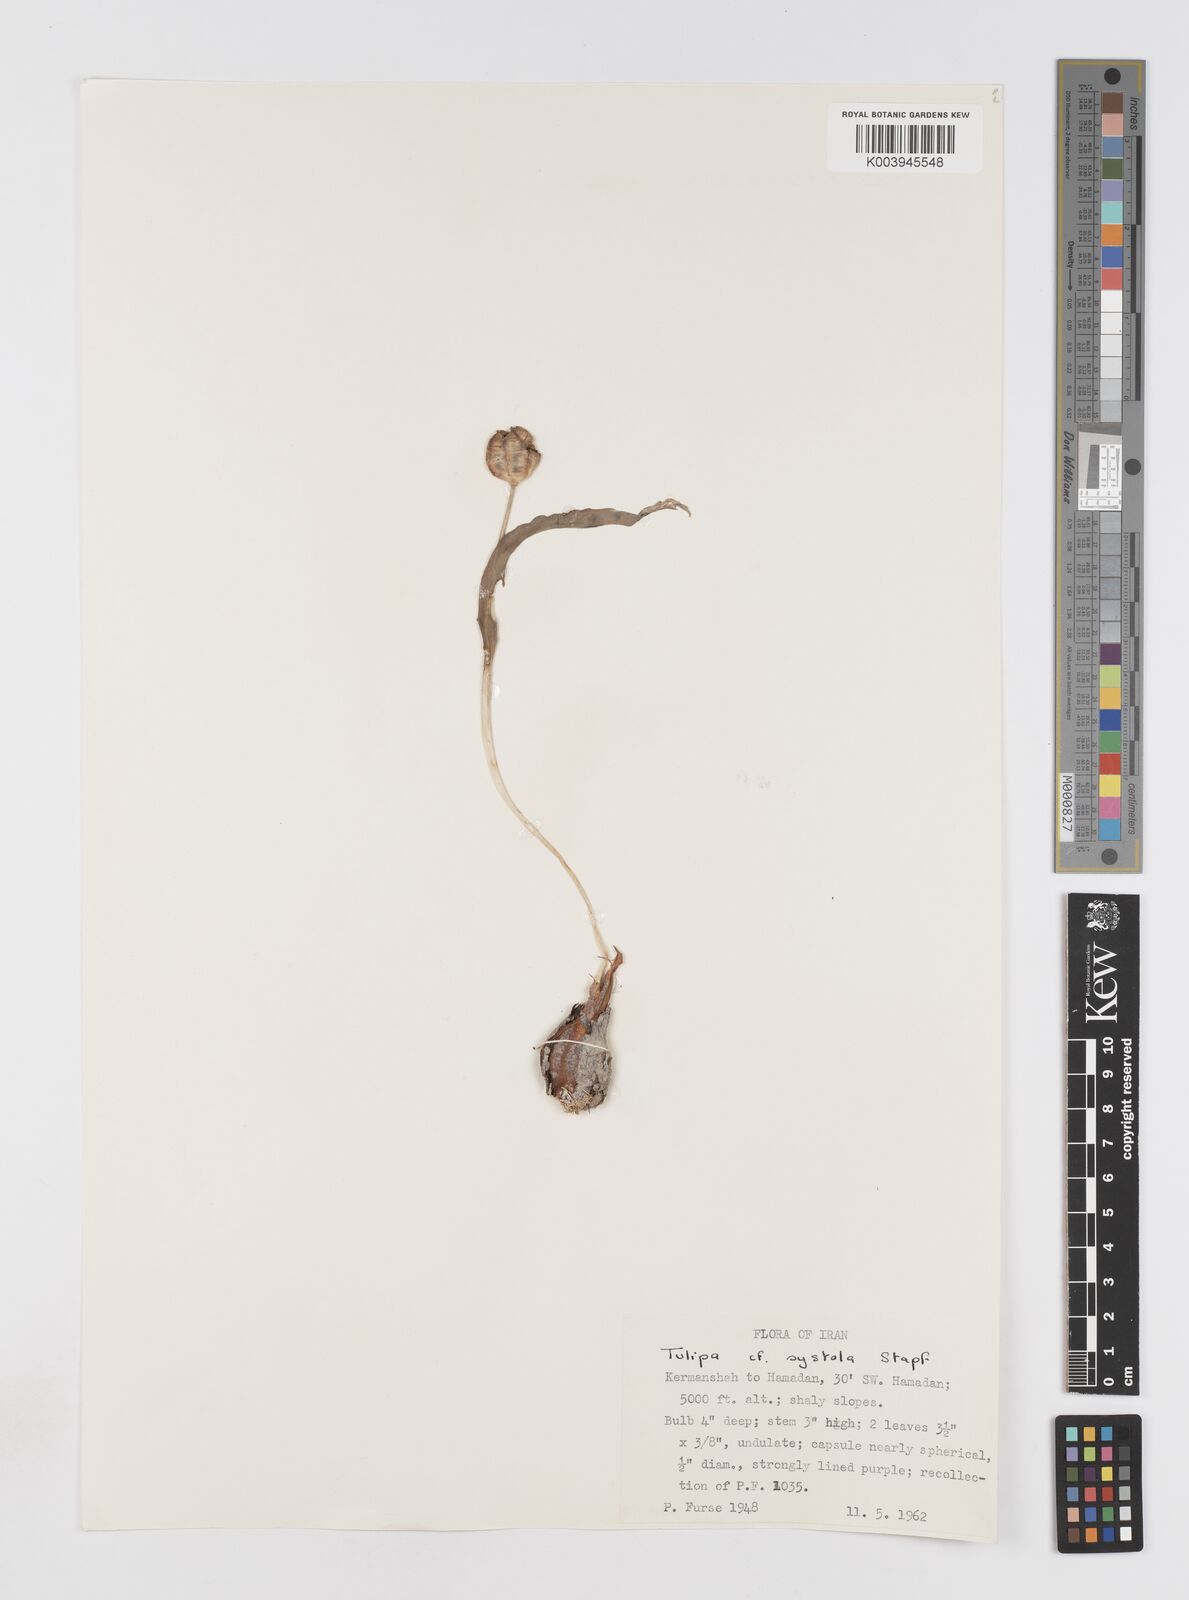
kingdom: Plantae
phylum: Tracheophyta
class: Liliopsida
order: Liliales
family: Liliaceae
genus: Tulipa
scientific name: Tulipa biflora
